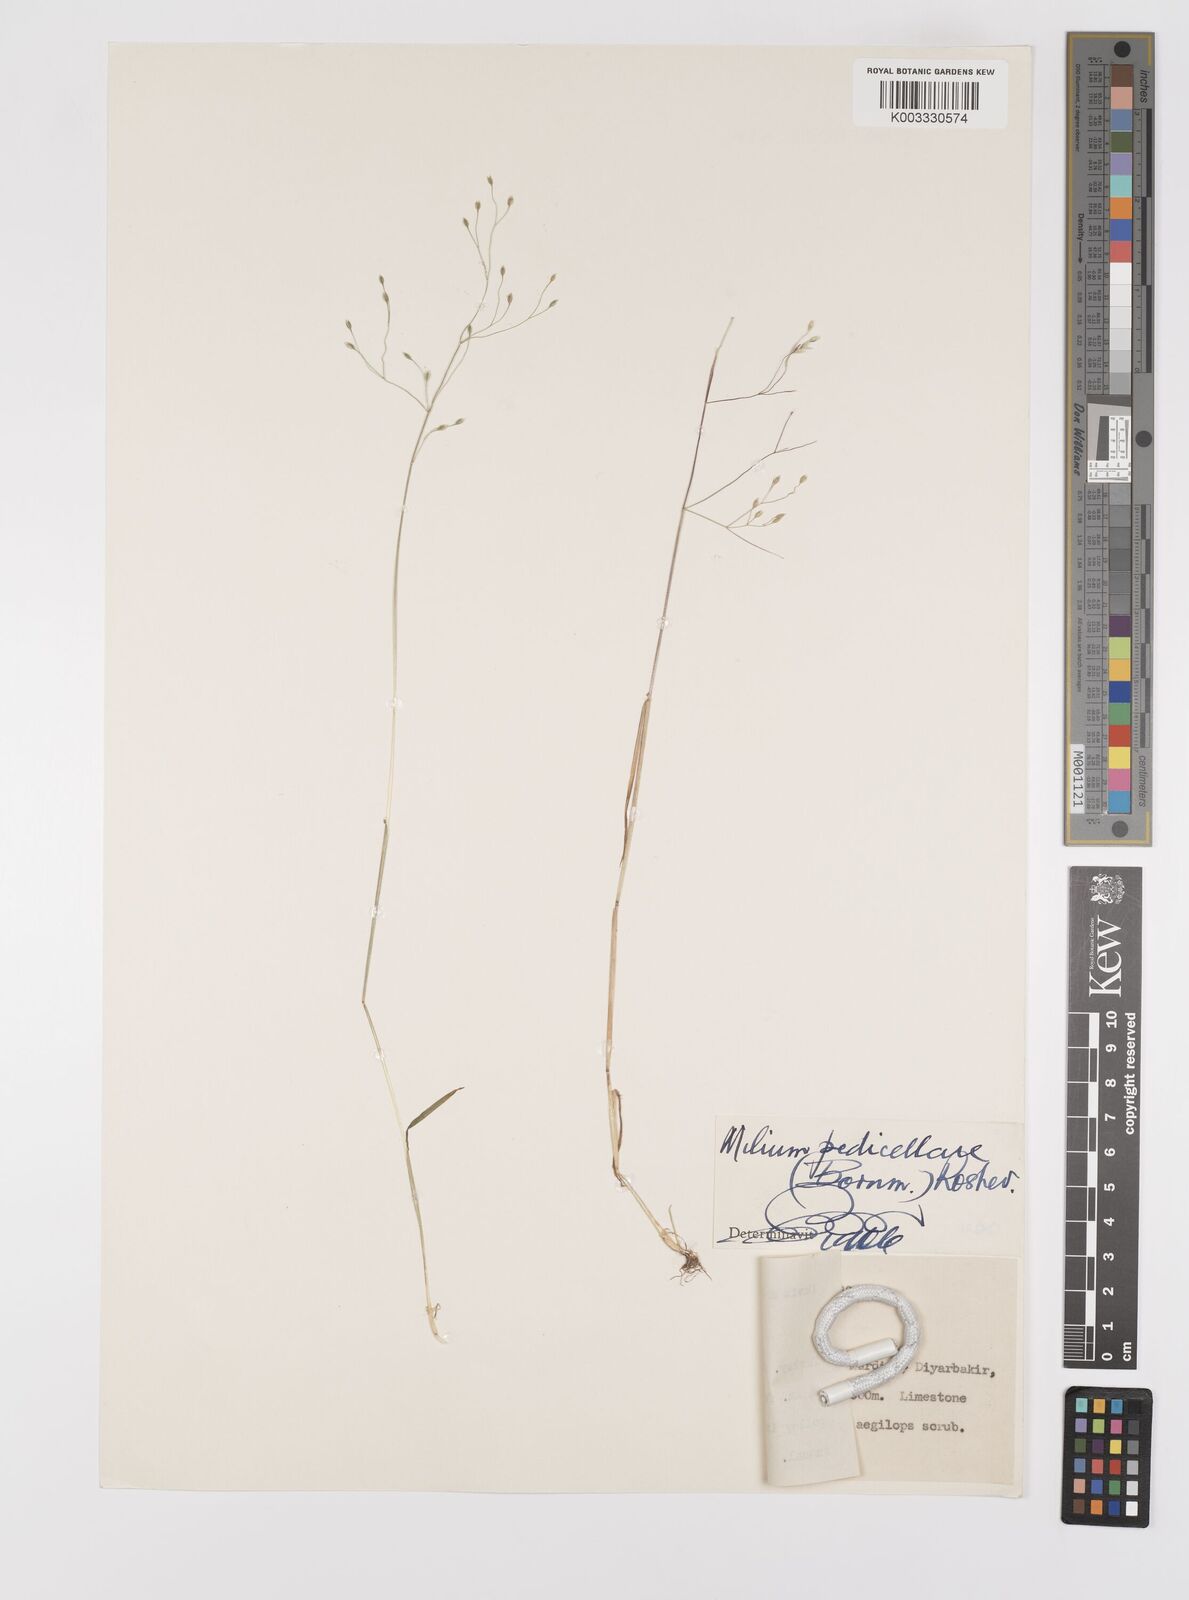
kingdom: Plantae
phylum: Tracheophyta
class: Liliopsida
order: Poales
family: Poaceae
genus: Milium
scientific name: Milium pedicellare
